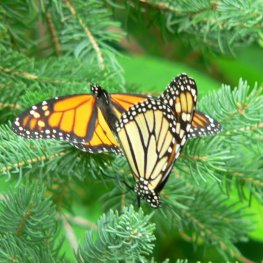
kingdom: Animalia
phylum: Arthropoda
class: Insecta
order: Lepidoptera
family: Nymphalidae
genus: Danaus
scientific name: Danaus plexippus
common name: Monarch
